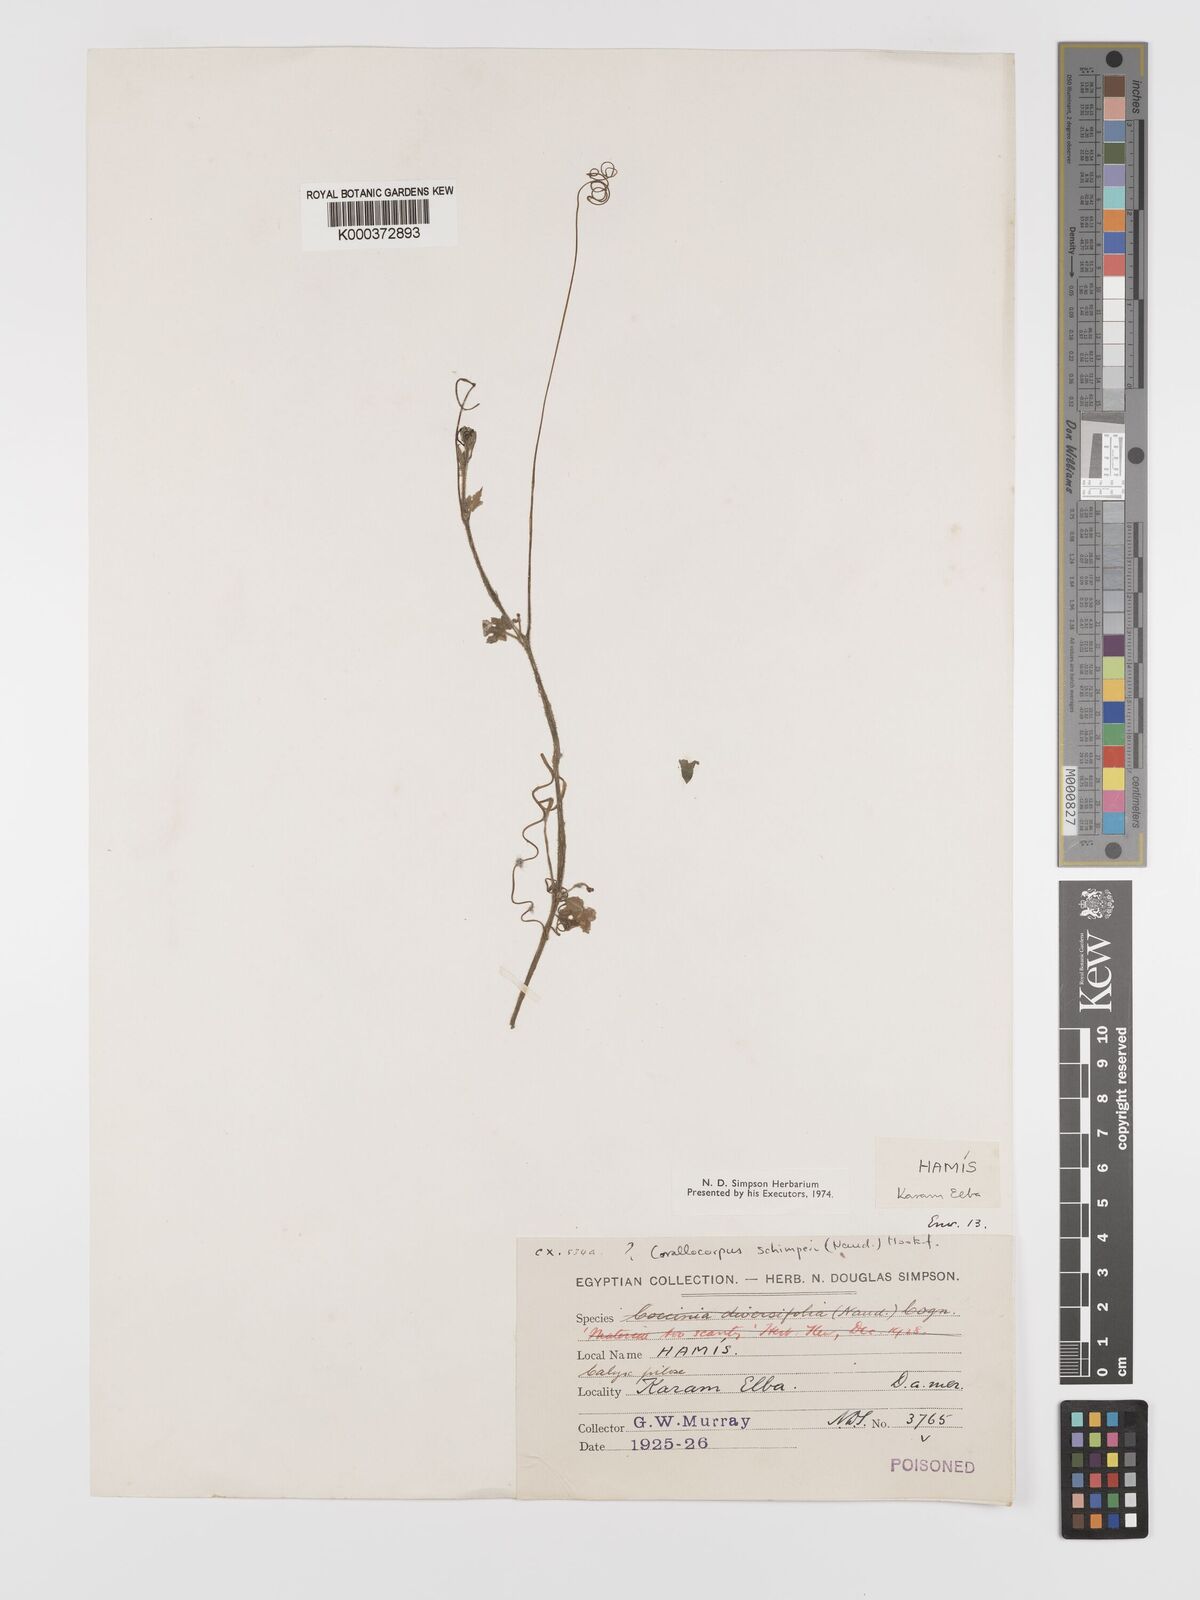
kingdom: Plantae
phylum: Tracheophyta
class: Magnoliopsida
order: Cucurbitales
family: Cucurbitaceae
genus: Corallocarpus
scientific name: Corallocarpus schimperi
